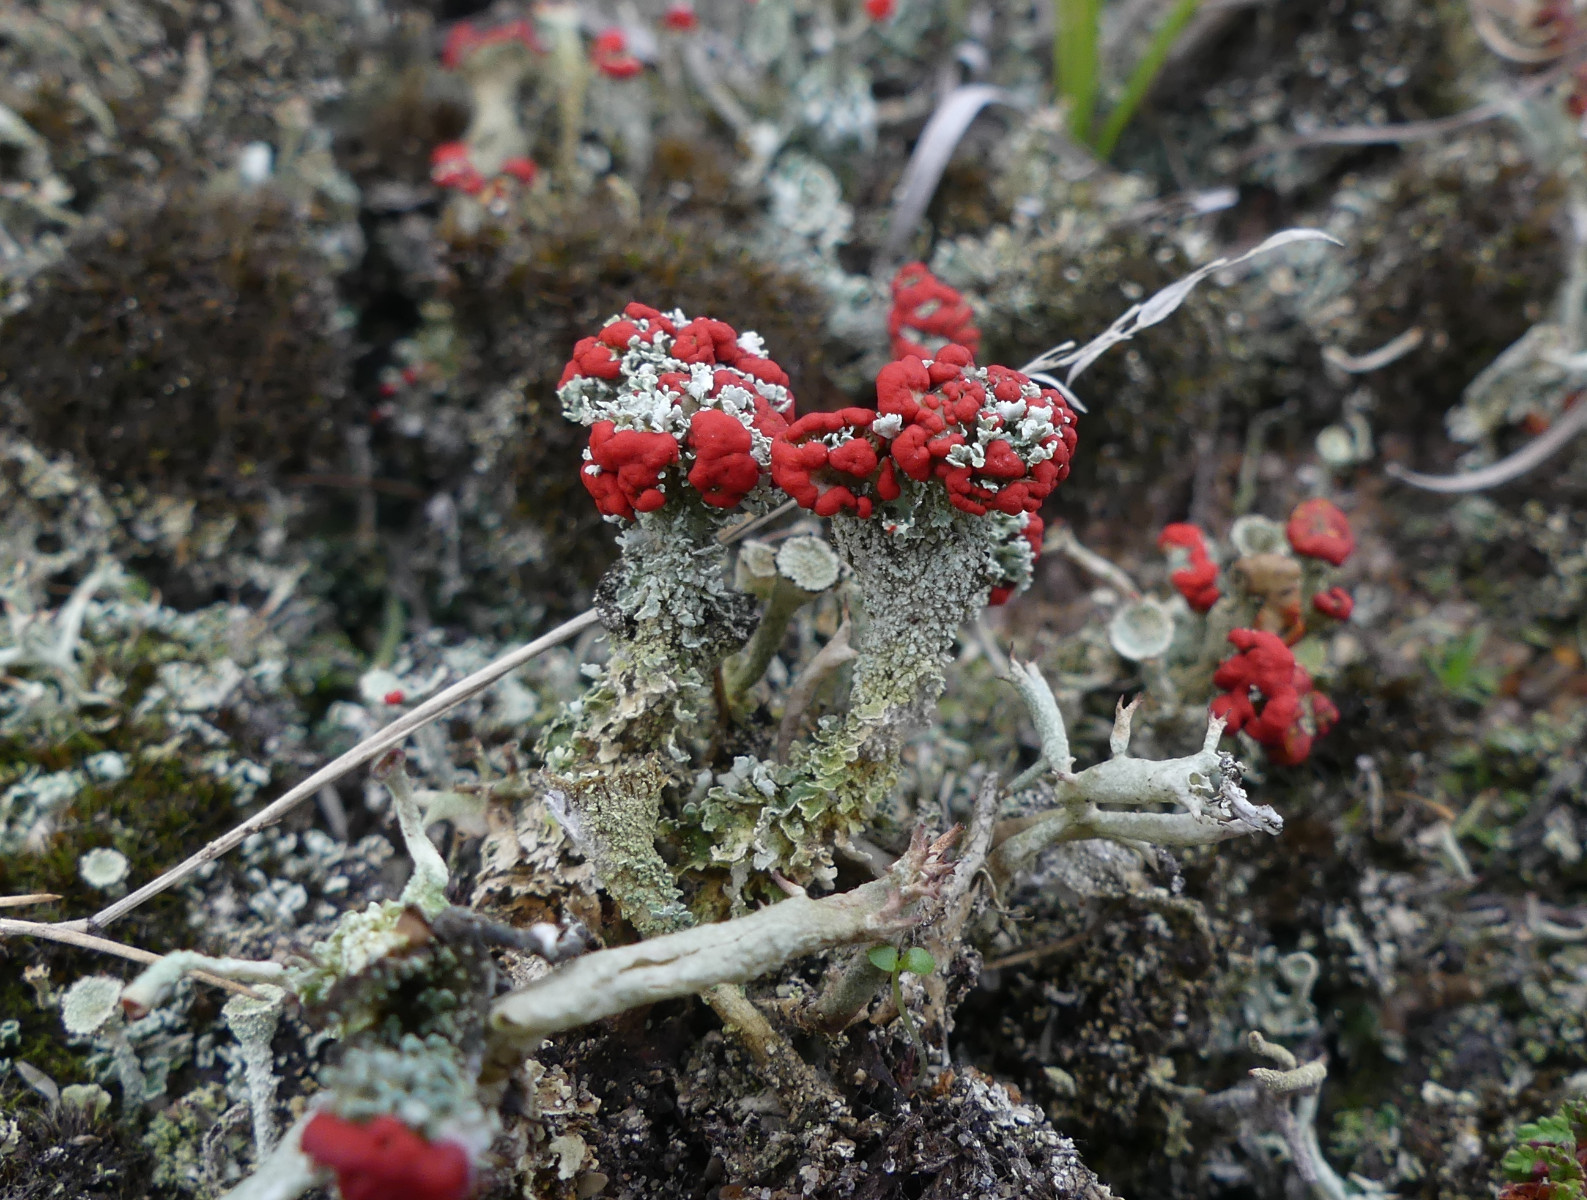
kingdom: Fungi
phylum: Ascomycota
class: Lecanoromycetes
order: Lecanorales
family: Cladoniaceae
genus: Cladonia
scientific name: Cladonia diversa
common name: rød bægerlav
